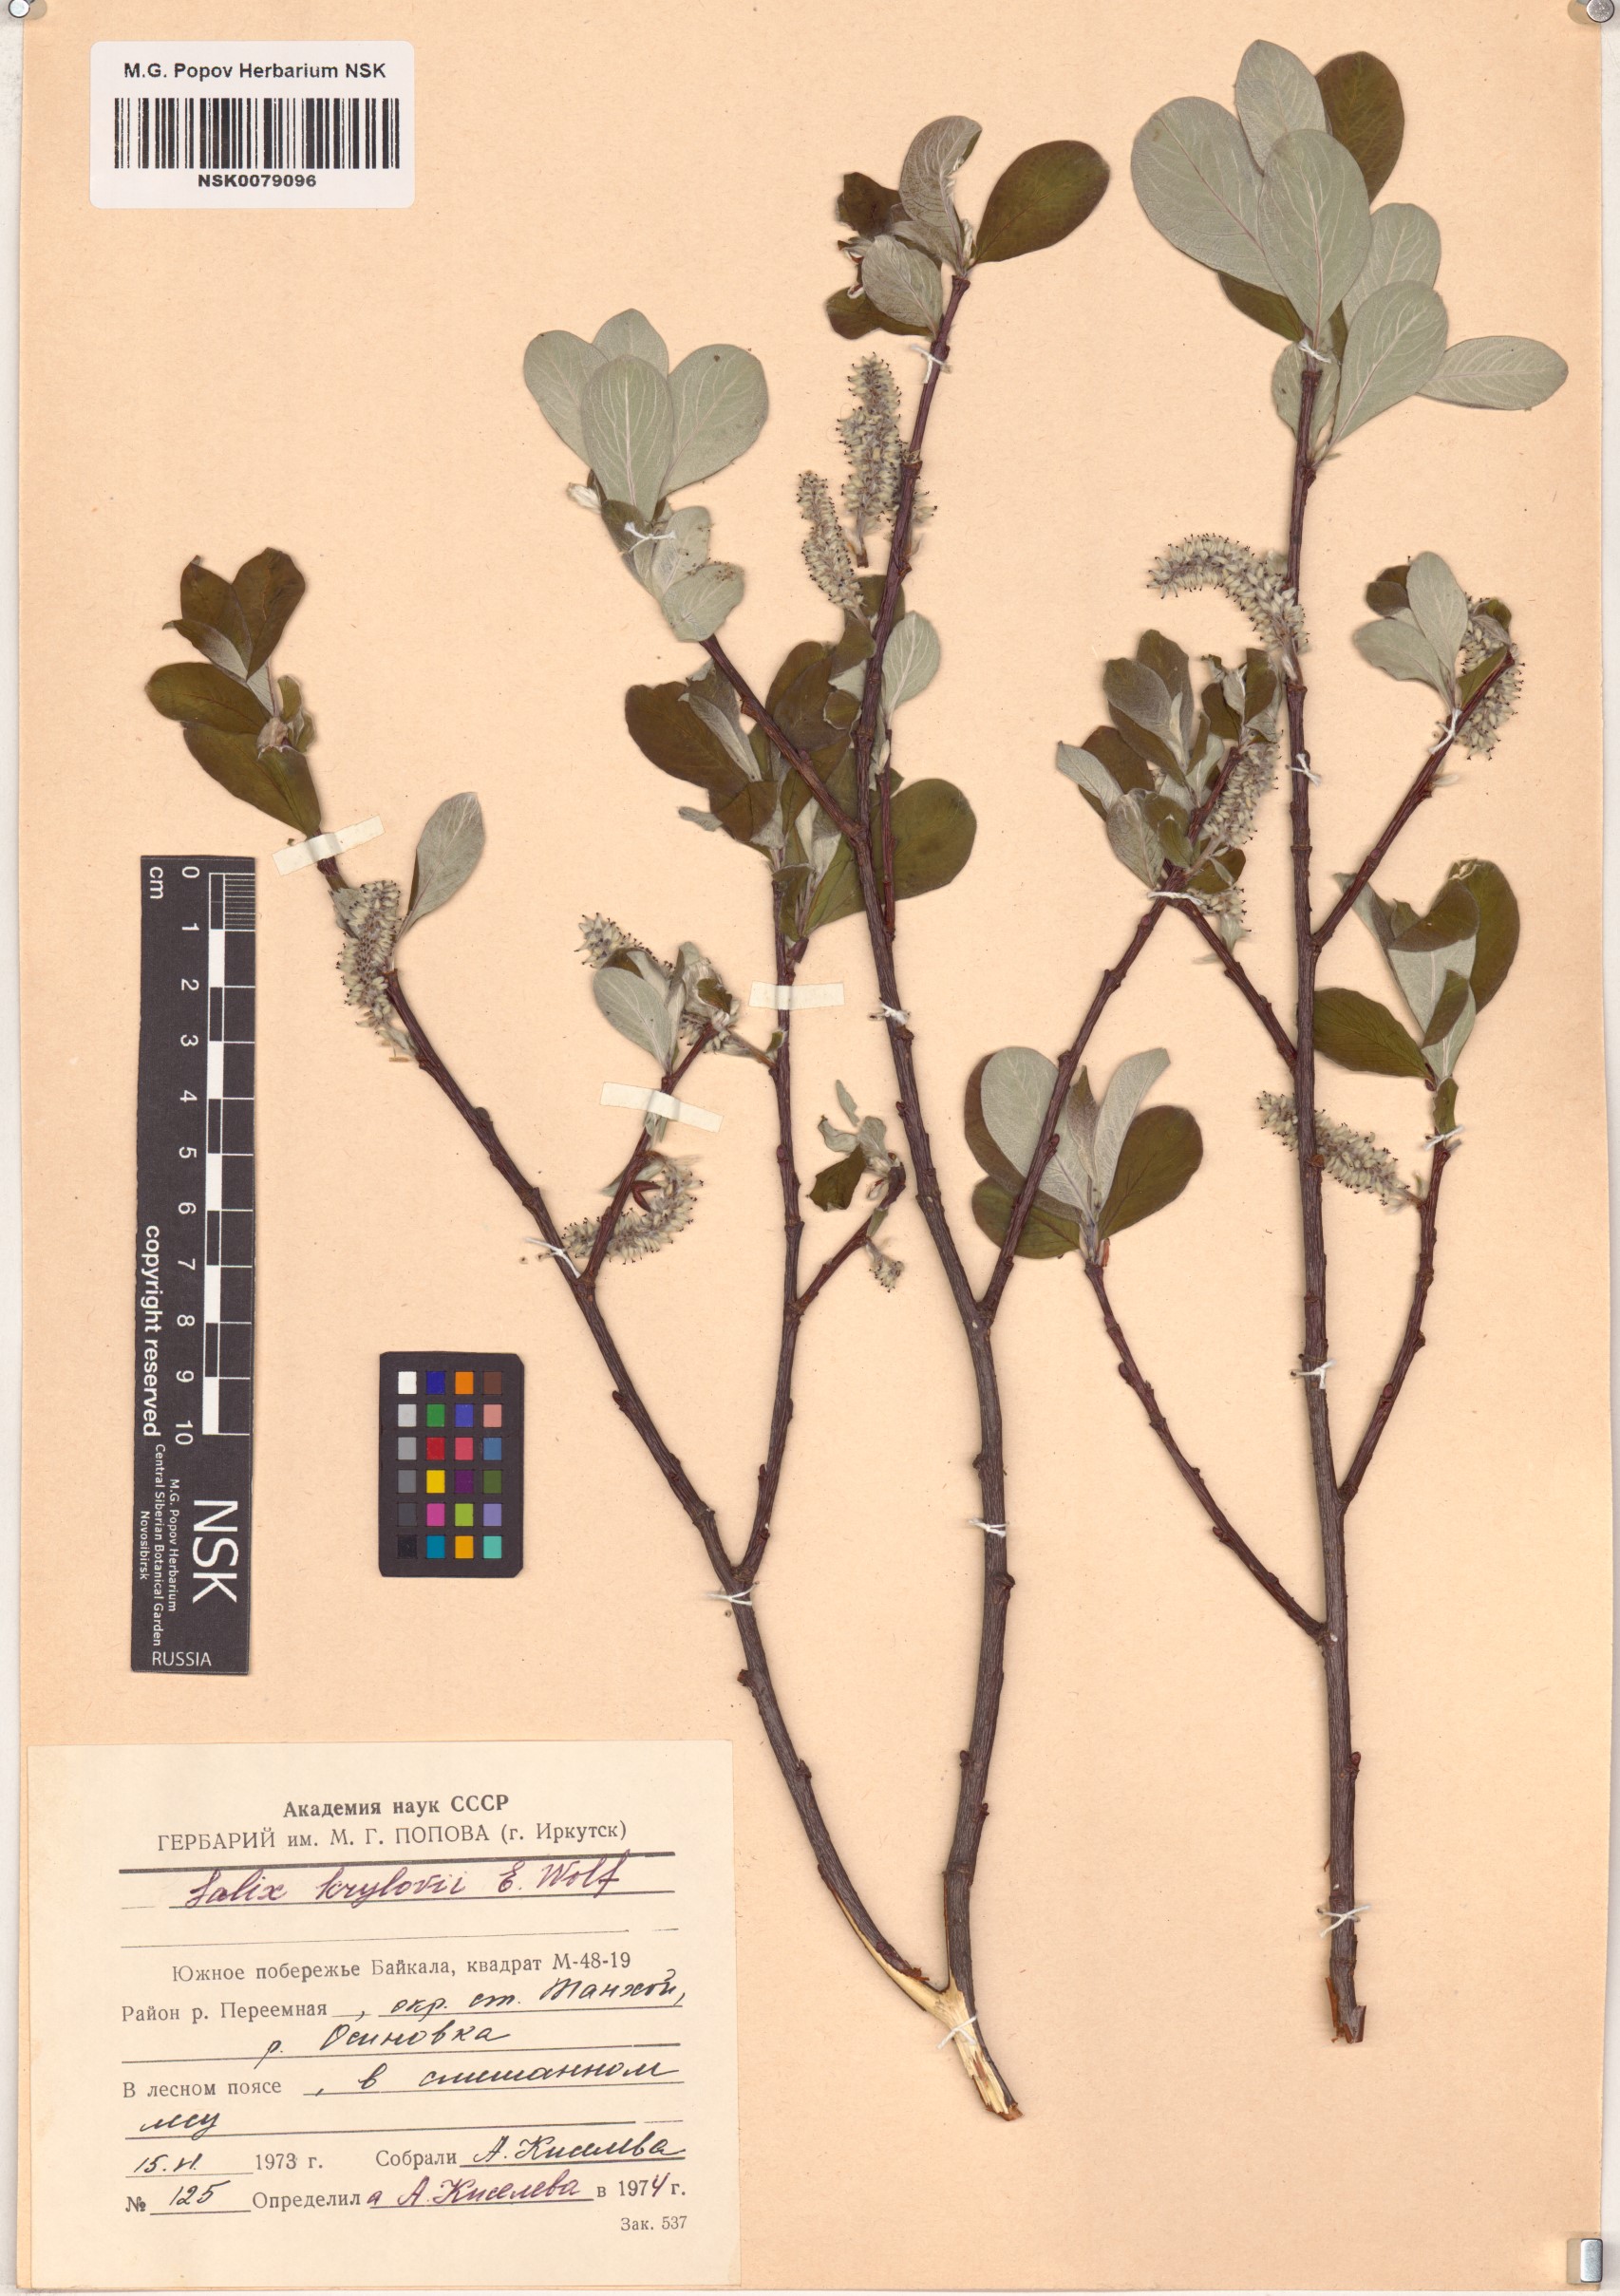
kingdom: Plantae
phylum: Tracheophyta
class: Magnoliopsida
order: Malpighiales
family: Salicaceae
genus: Salix
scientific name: Salix krylovii
